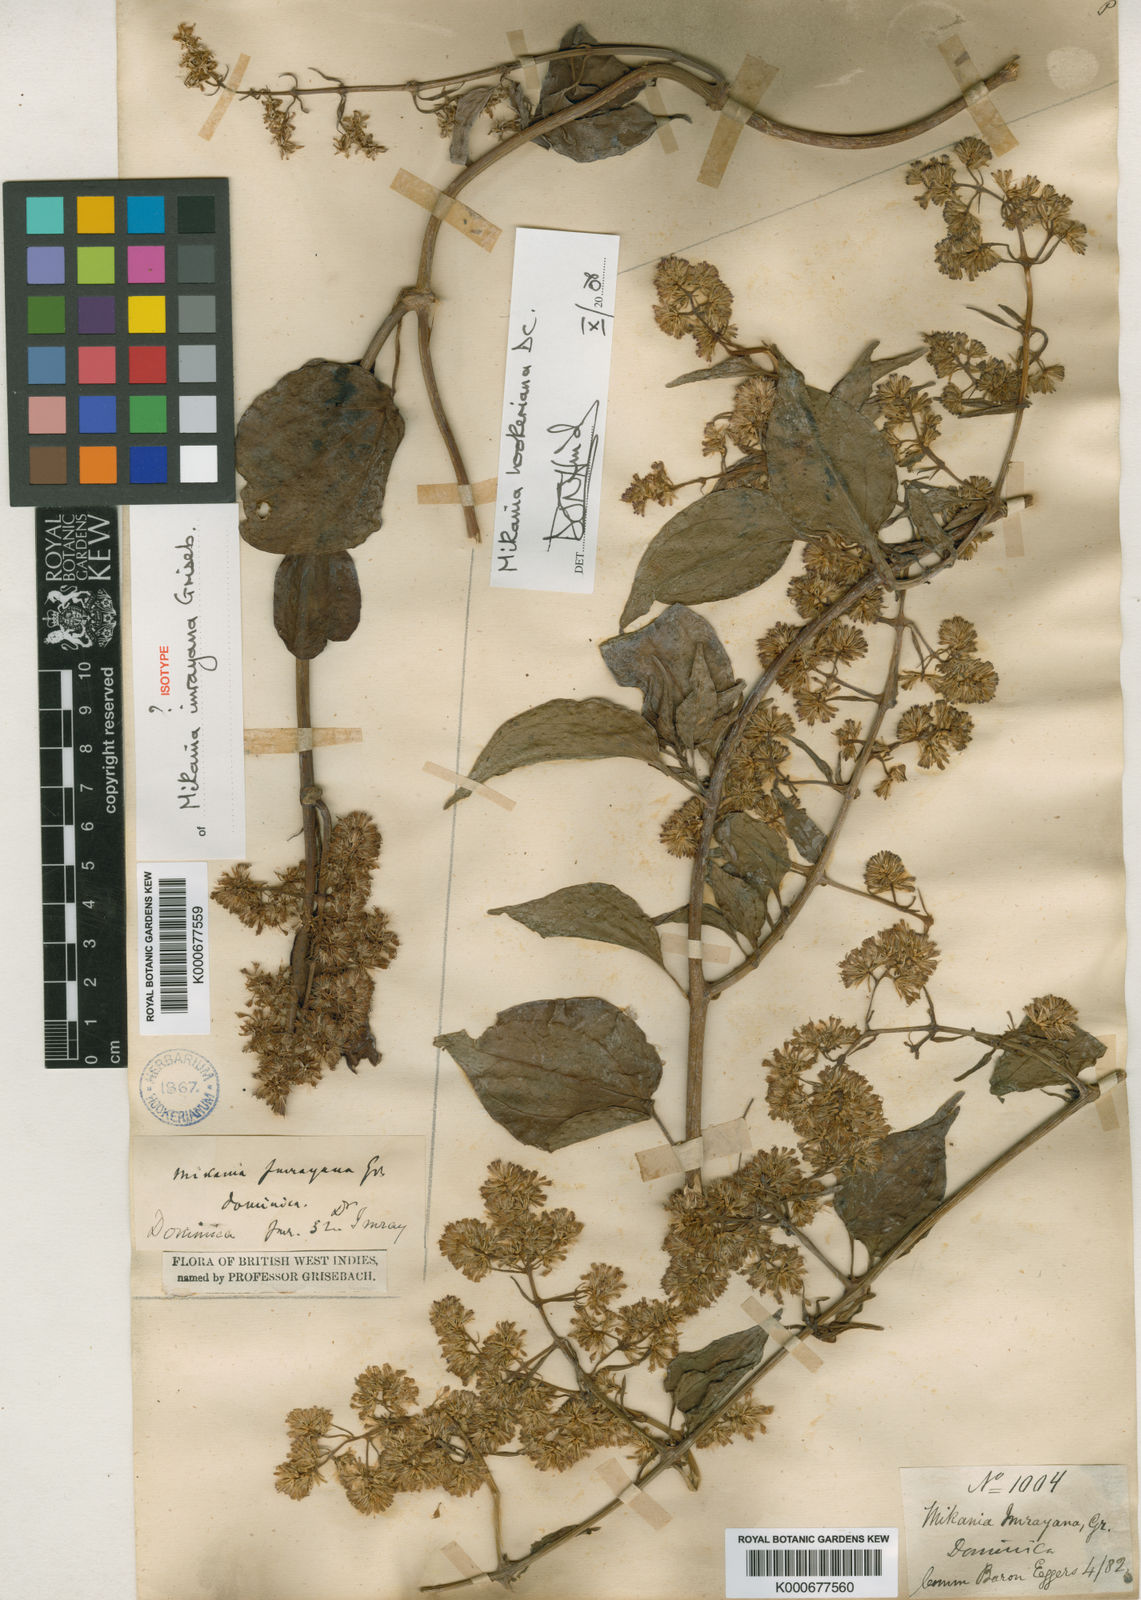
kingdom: Plantae
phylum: Tracheophyta
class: Magnoliopsida
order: Asterales
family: Asteraceae
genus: Mikania
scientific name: Mikania hookeriana
